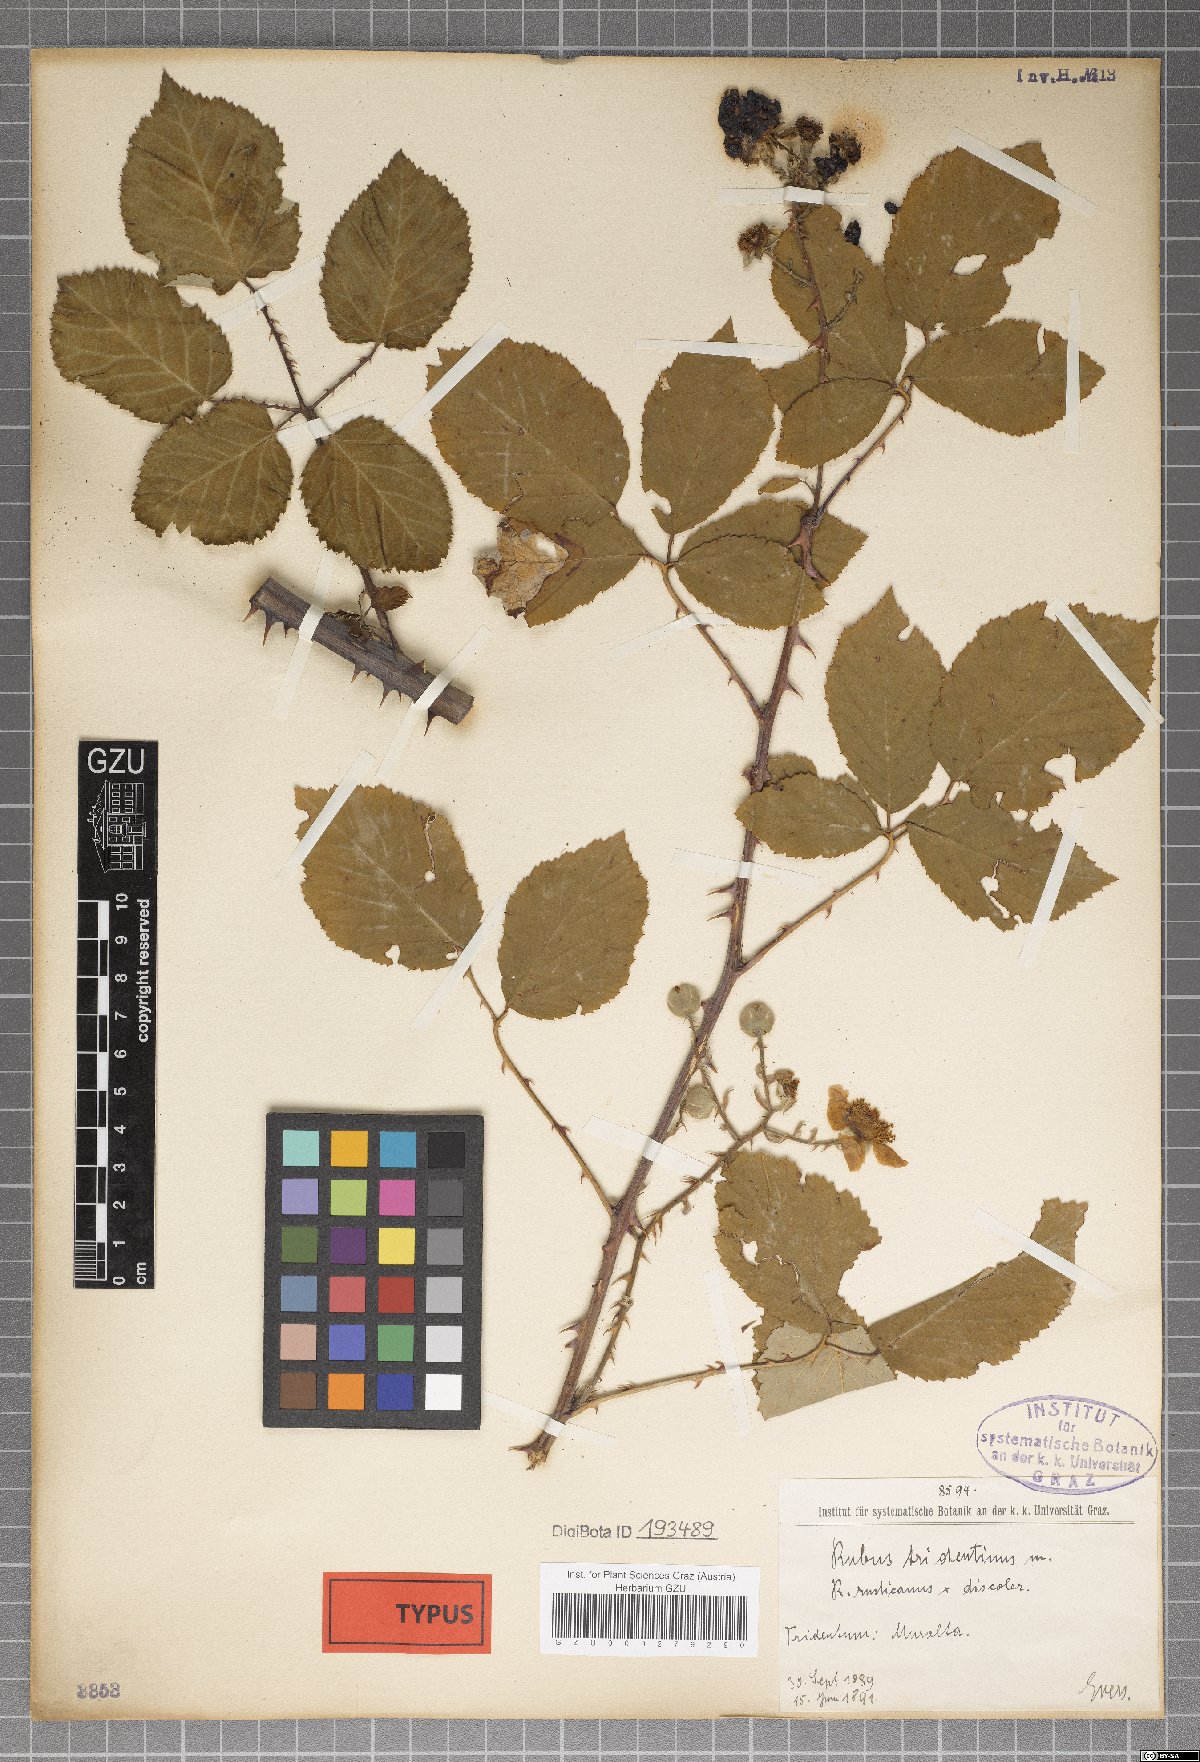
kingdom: Plantae
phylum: Tracheophyta
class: Magnoliopsida
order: Rosales
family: Rosaceae
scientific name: Rosaceae
